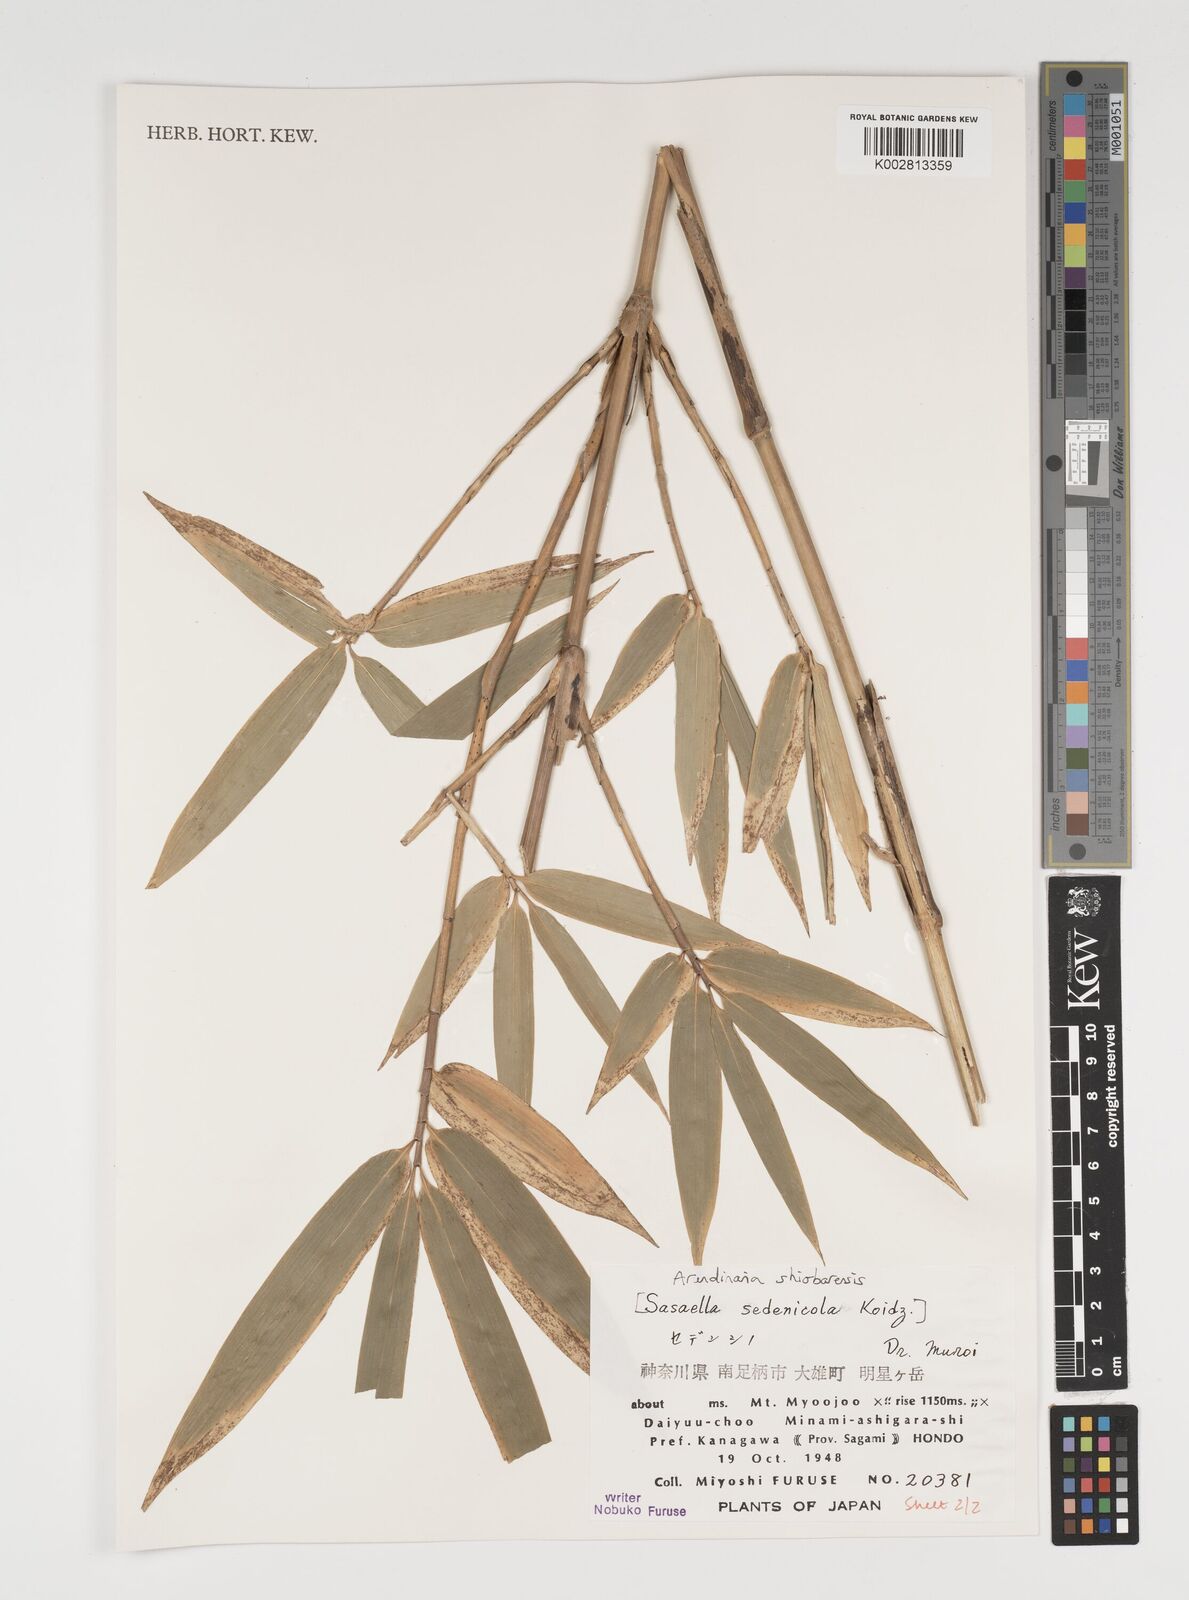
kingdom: Plantae
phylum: Tracheophyta
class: Liliopsida
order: Poales
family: Poaceae
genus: Sasa
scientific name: Sasa palmata
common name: Broad-leaved bamboo
